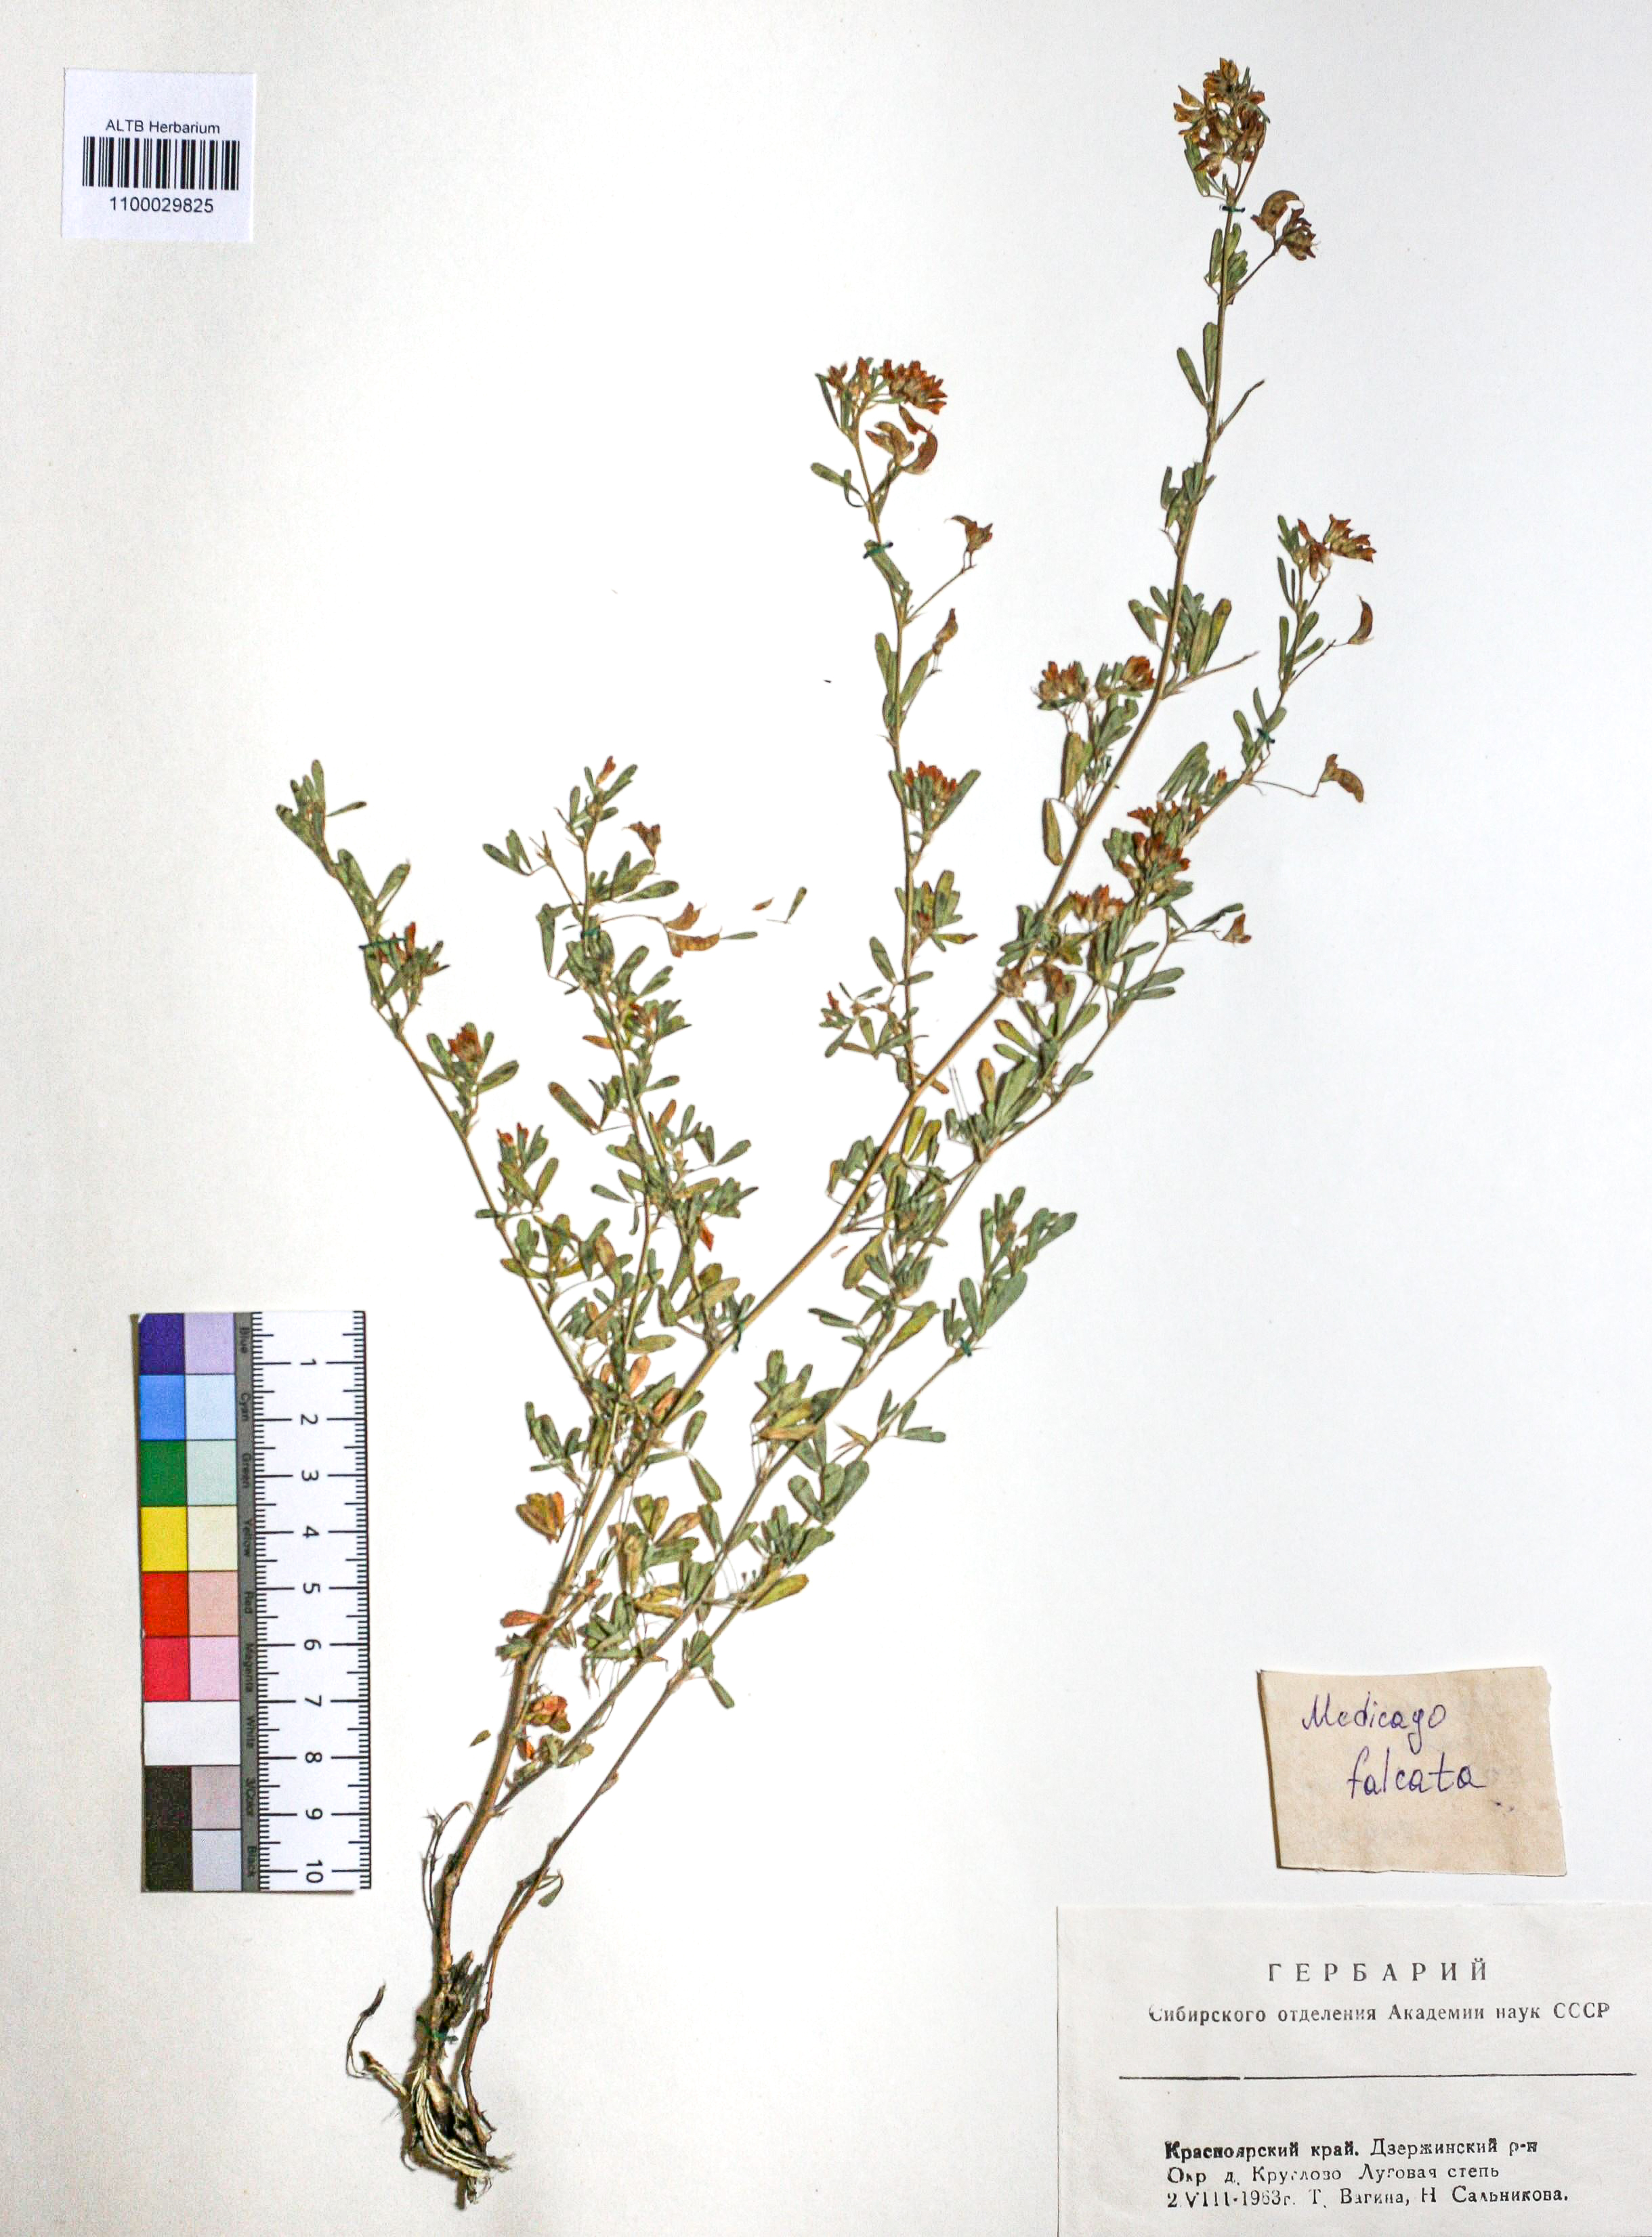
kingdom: Plantae
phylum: Tracheophyta
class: Magnoliopsida
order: Fabales
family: Fabaceae
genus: Medicago
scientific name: Medicago falcata
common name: Sickle medick
